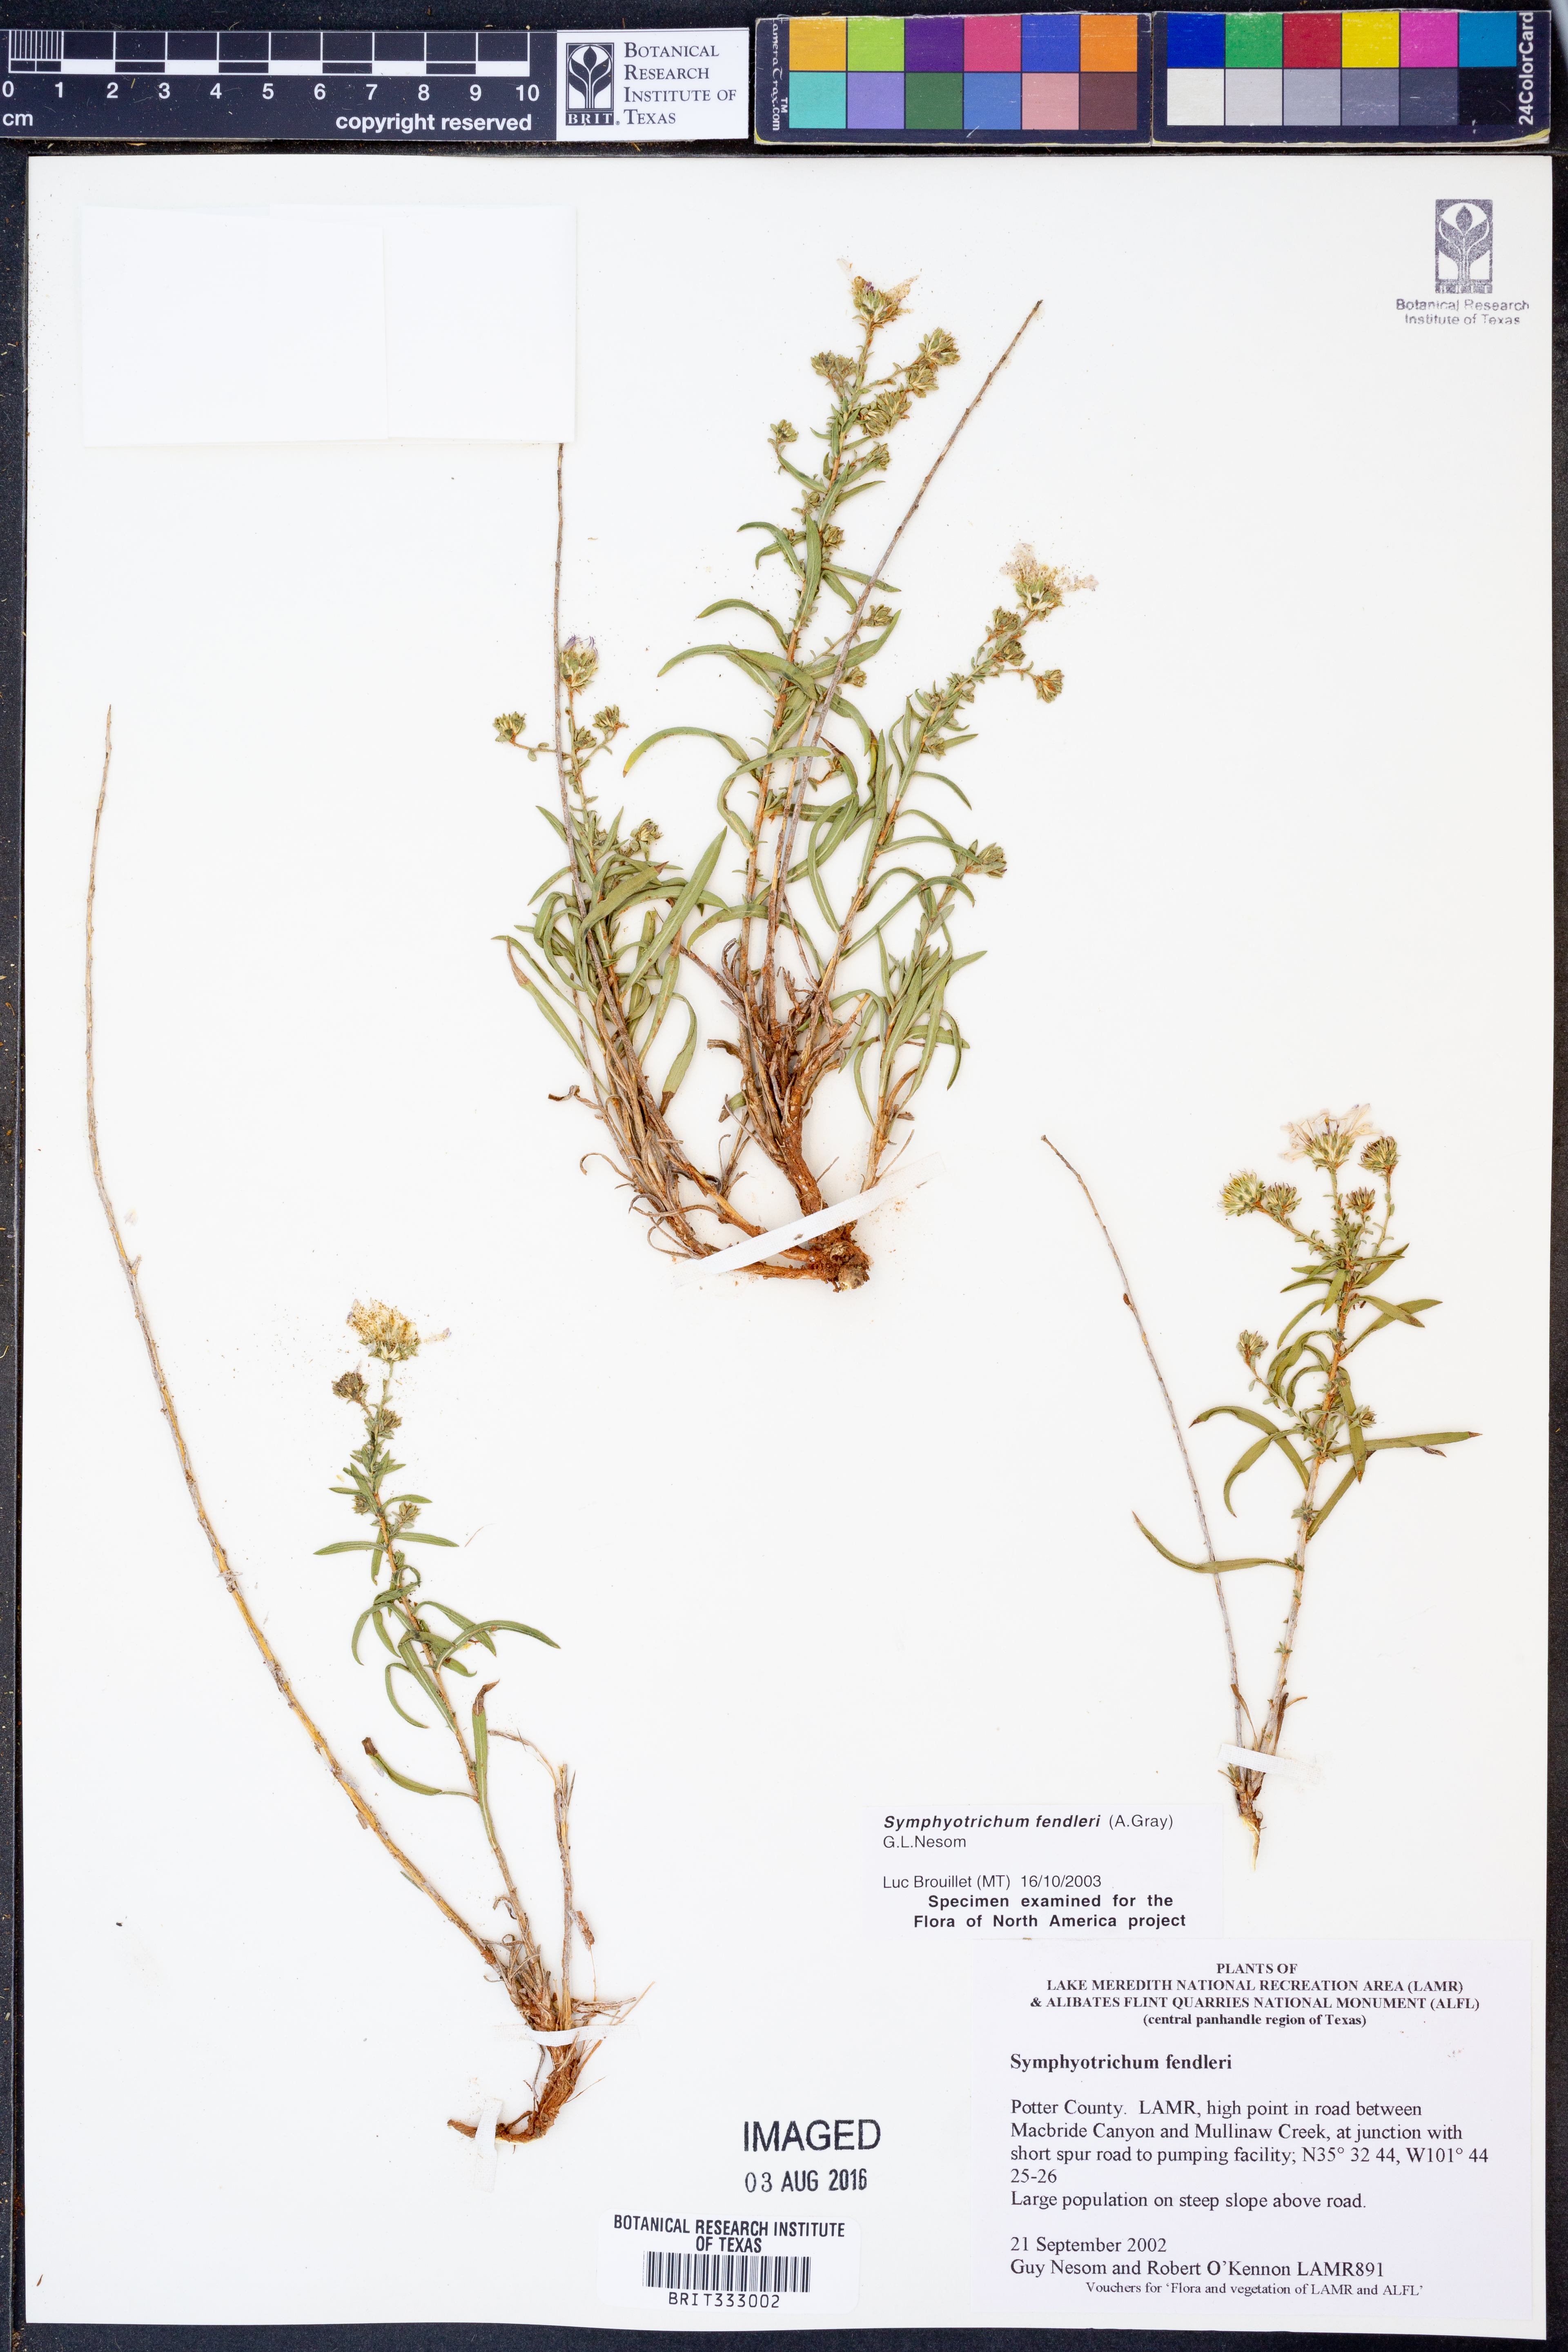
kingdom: Plantae
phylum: Tracheophyta
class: Magnoliopsida
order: Asterales
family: Asteraceae
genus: Symphyotrichum
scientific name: Symphyotrichum fendleri
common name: Fendler's aster
